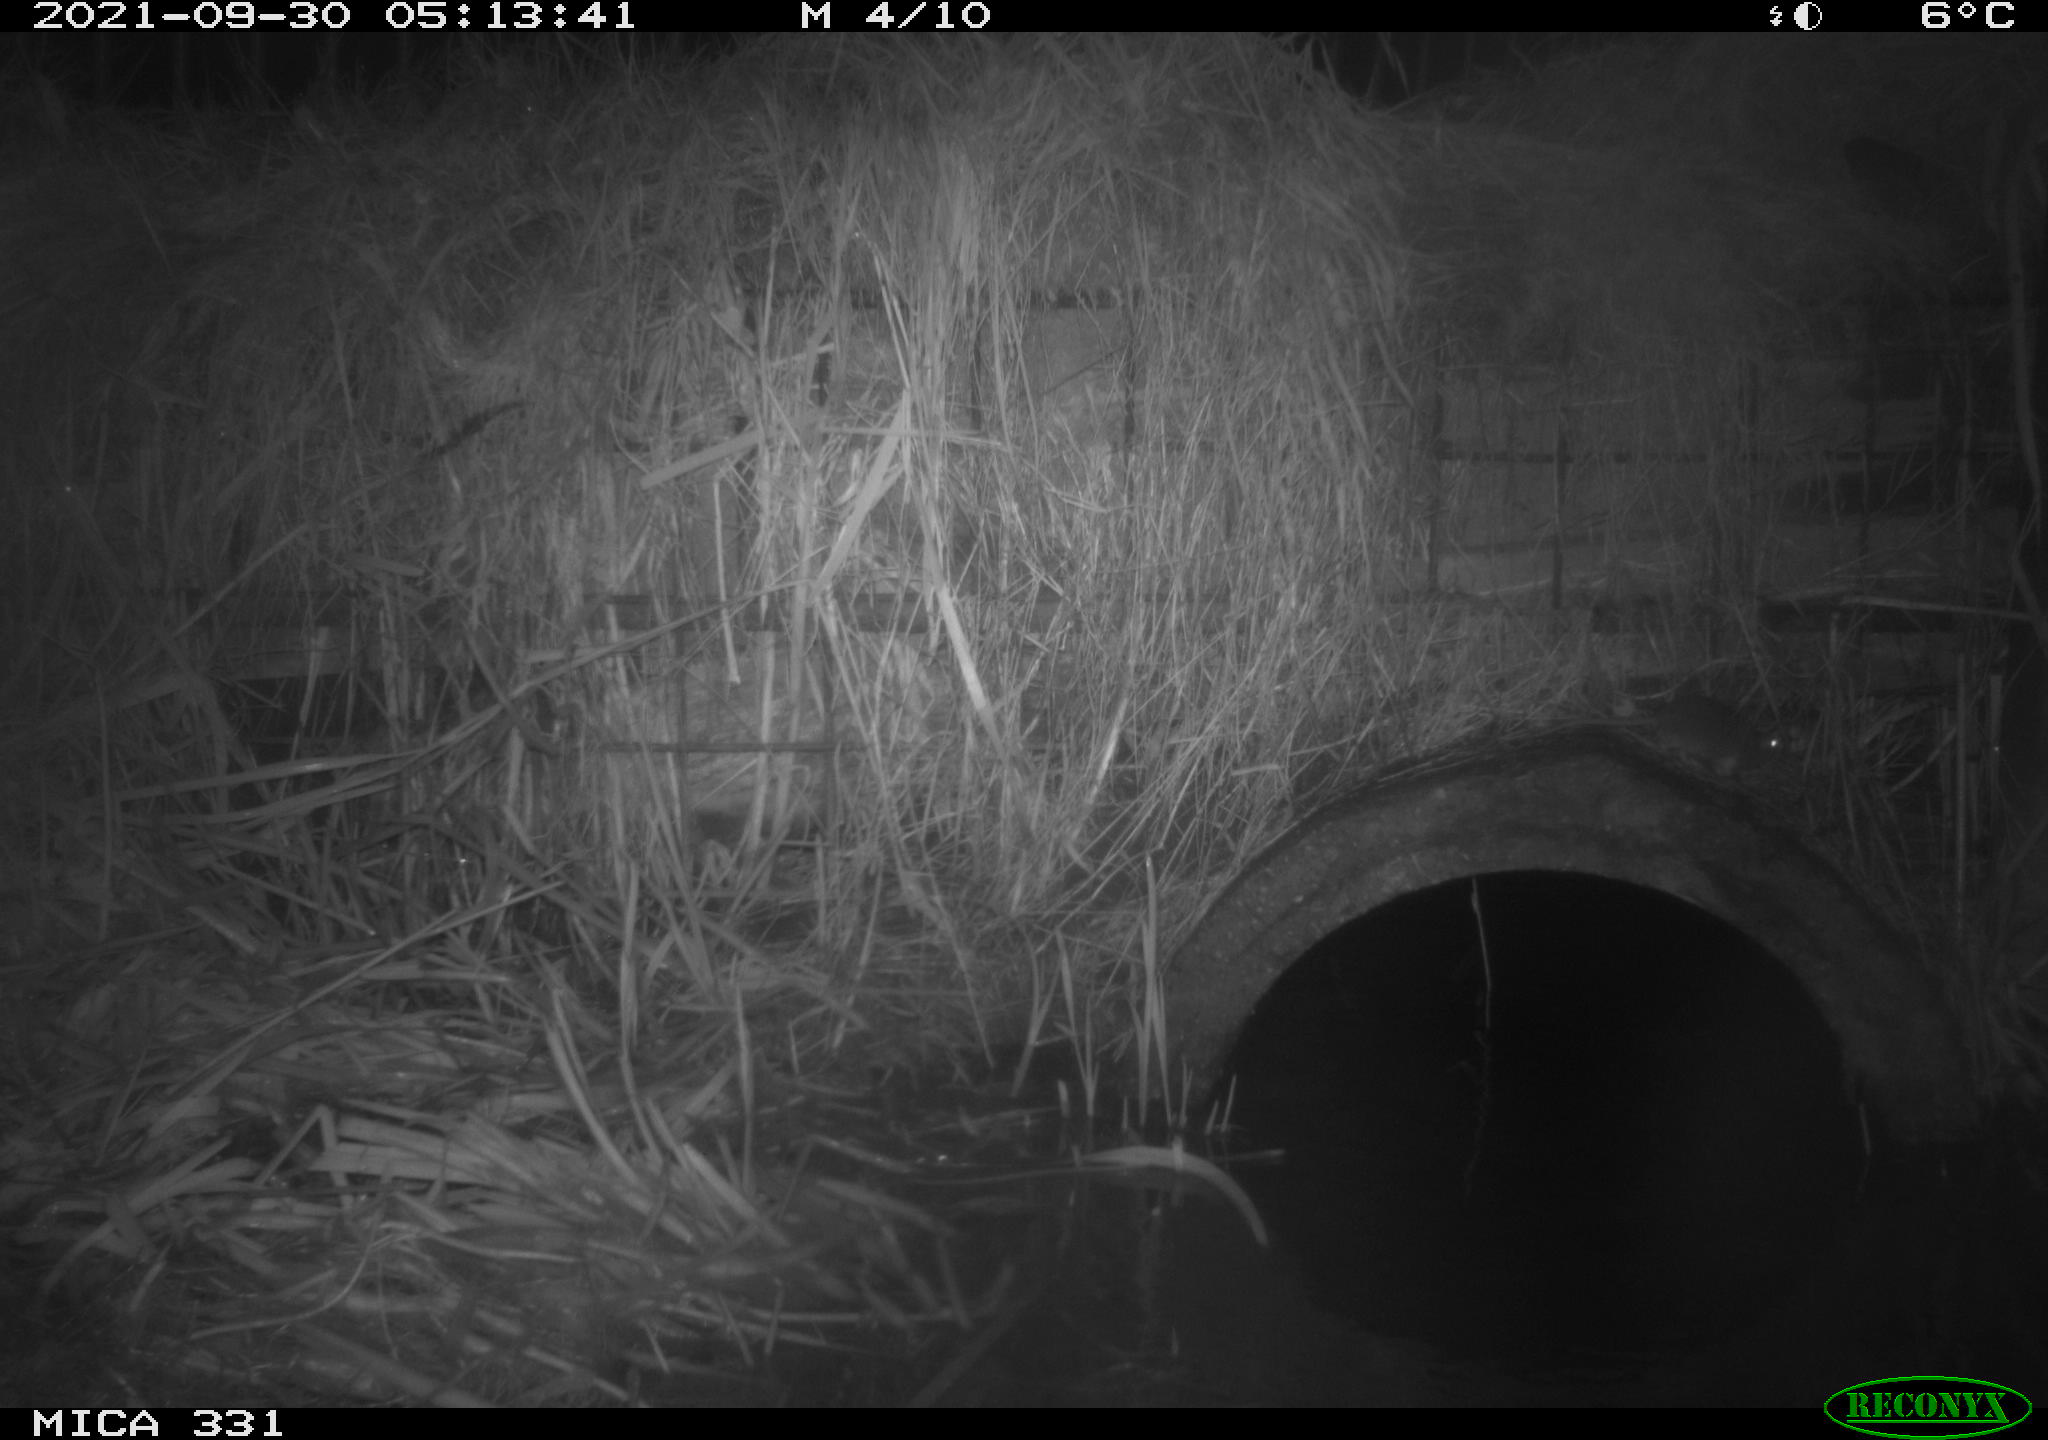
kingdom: Animalia
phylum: Chordata
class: Mammalia
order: Rodentia
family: Muridae
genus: Rattus
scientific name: Rattus norvegicus
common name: Brown rat
